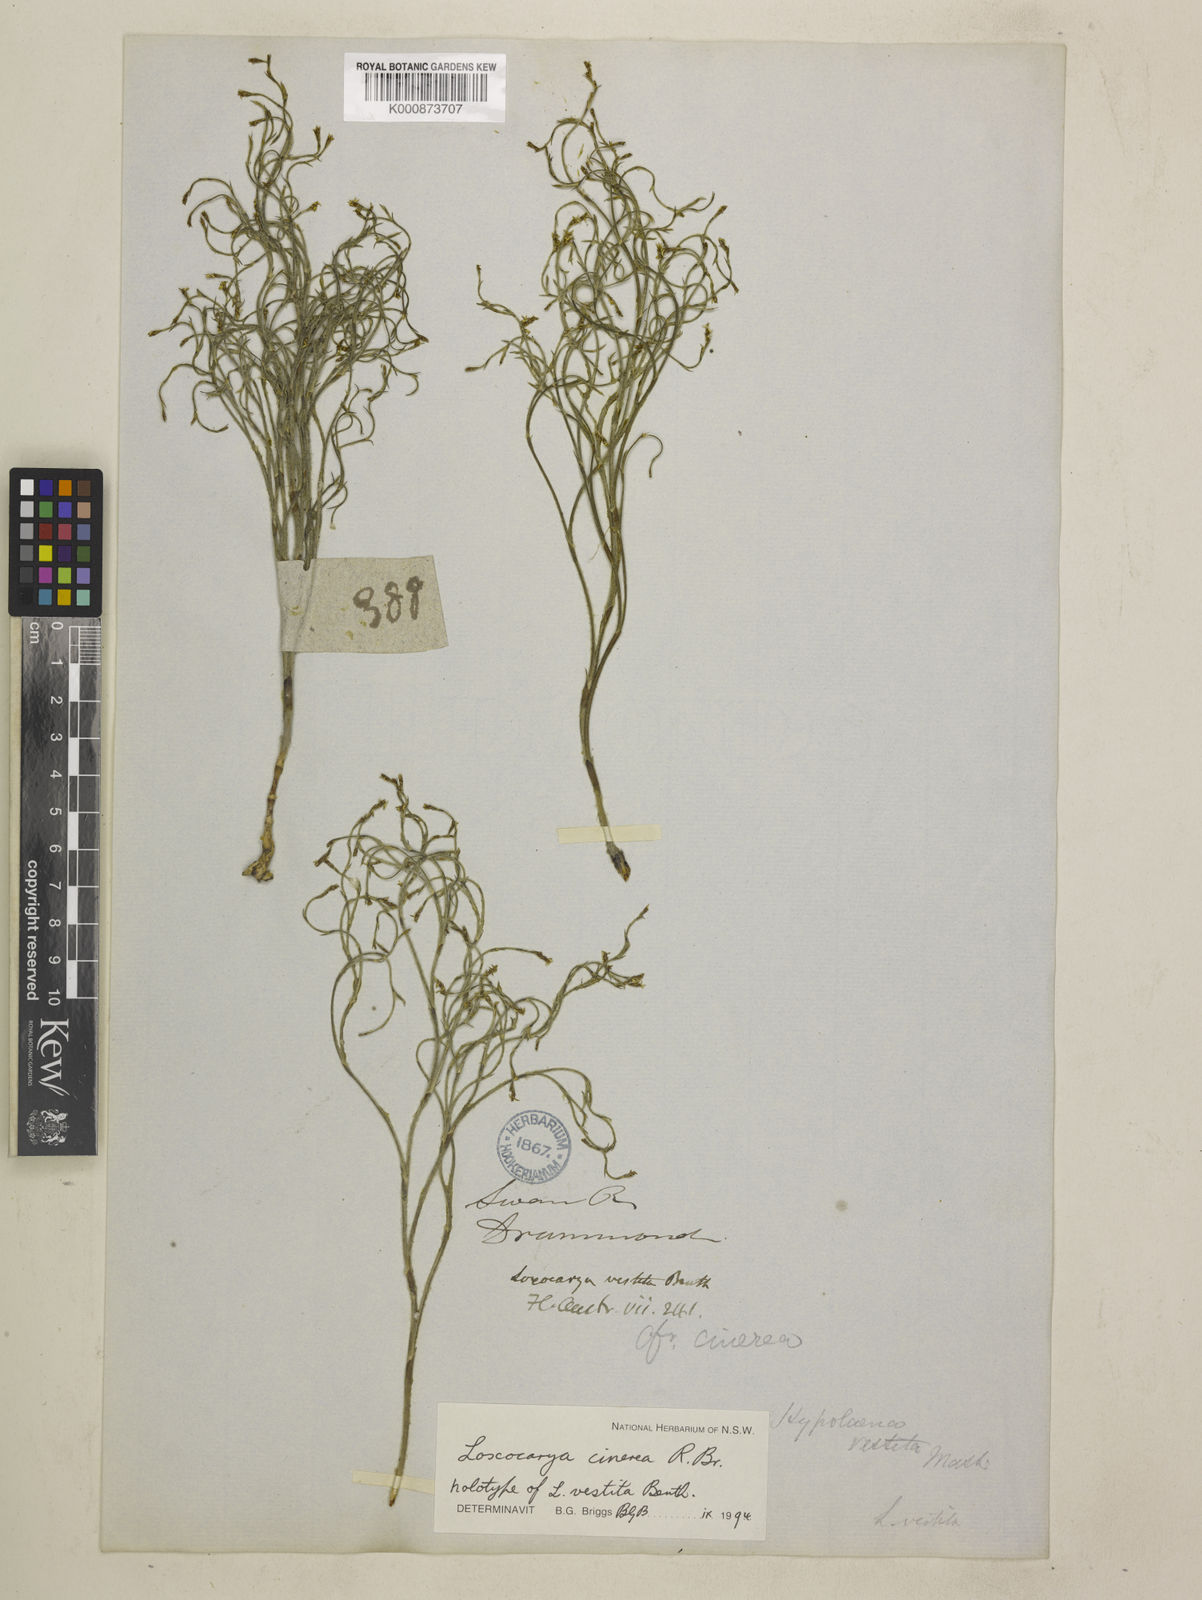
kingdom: Plantae
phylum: Tracheophyta
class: Liliopsida
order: Poales
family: Restionaceae
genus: Loxocarya
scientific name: Loxocarya cinerea
